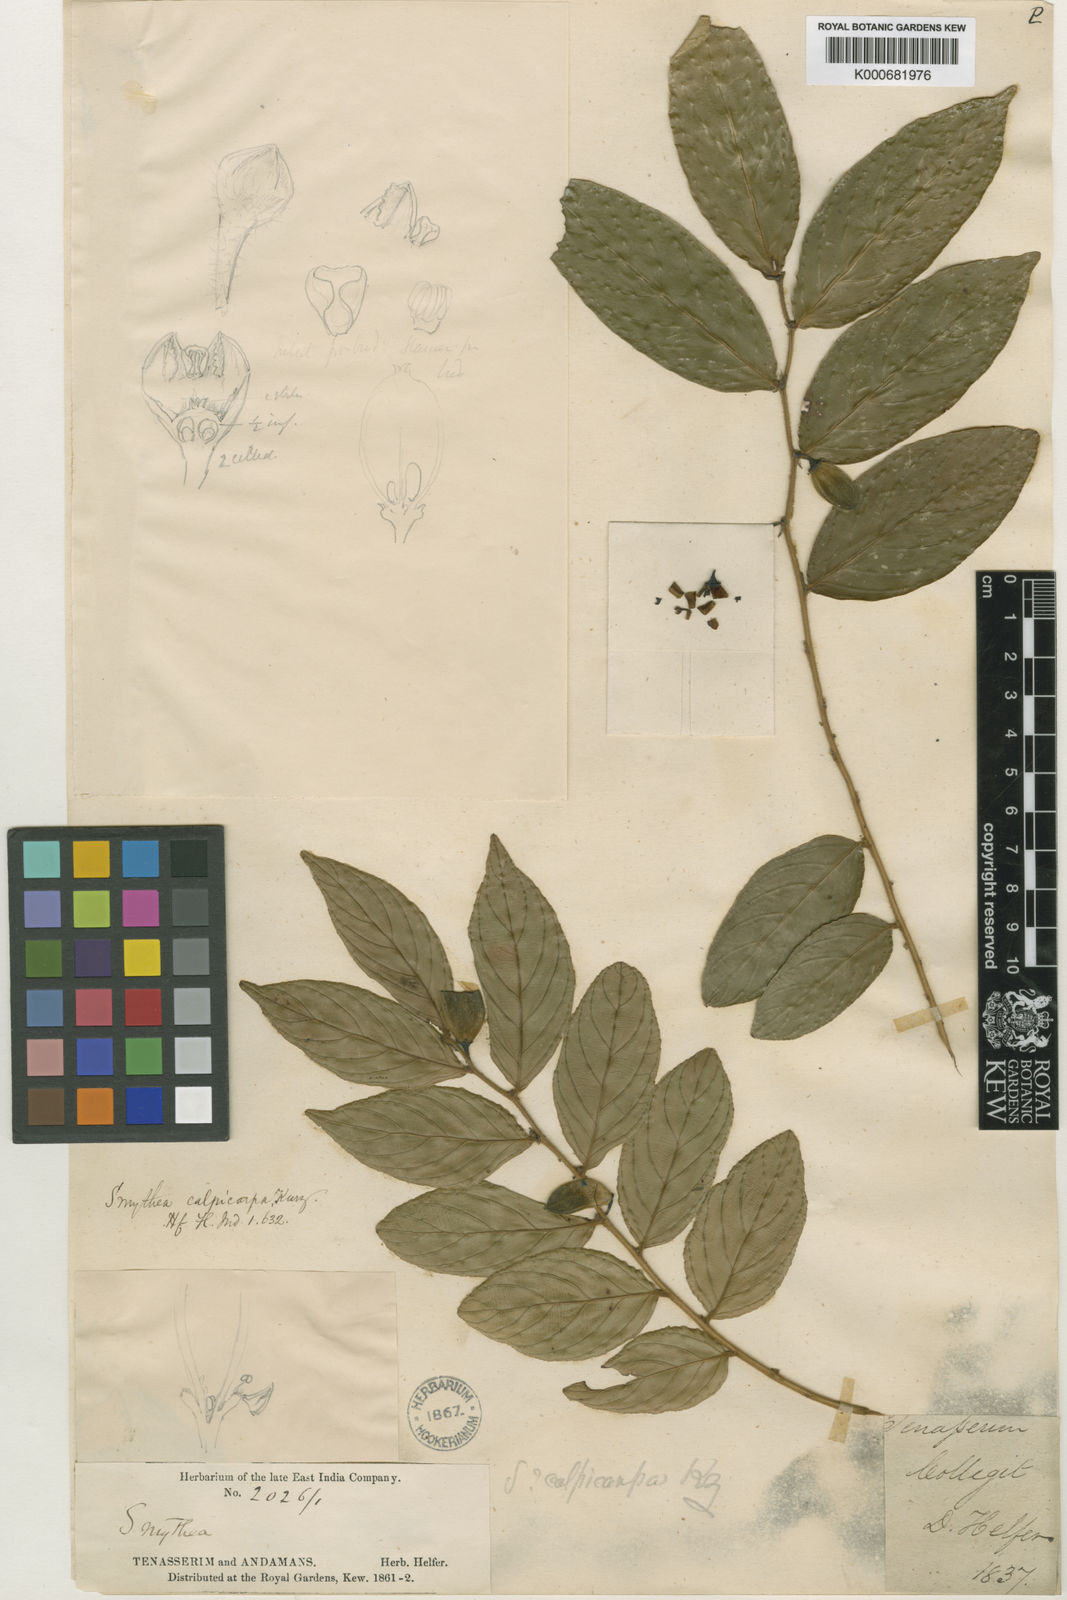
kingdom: Plantae
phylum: Tracheophyta
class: Magnoliopsida
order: Rosales
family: Rhamnaceae
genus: Smythea
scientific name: Smythea calpicarpa
